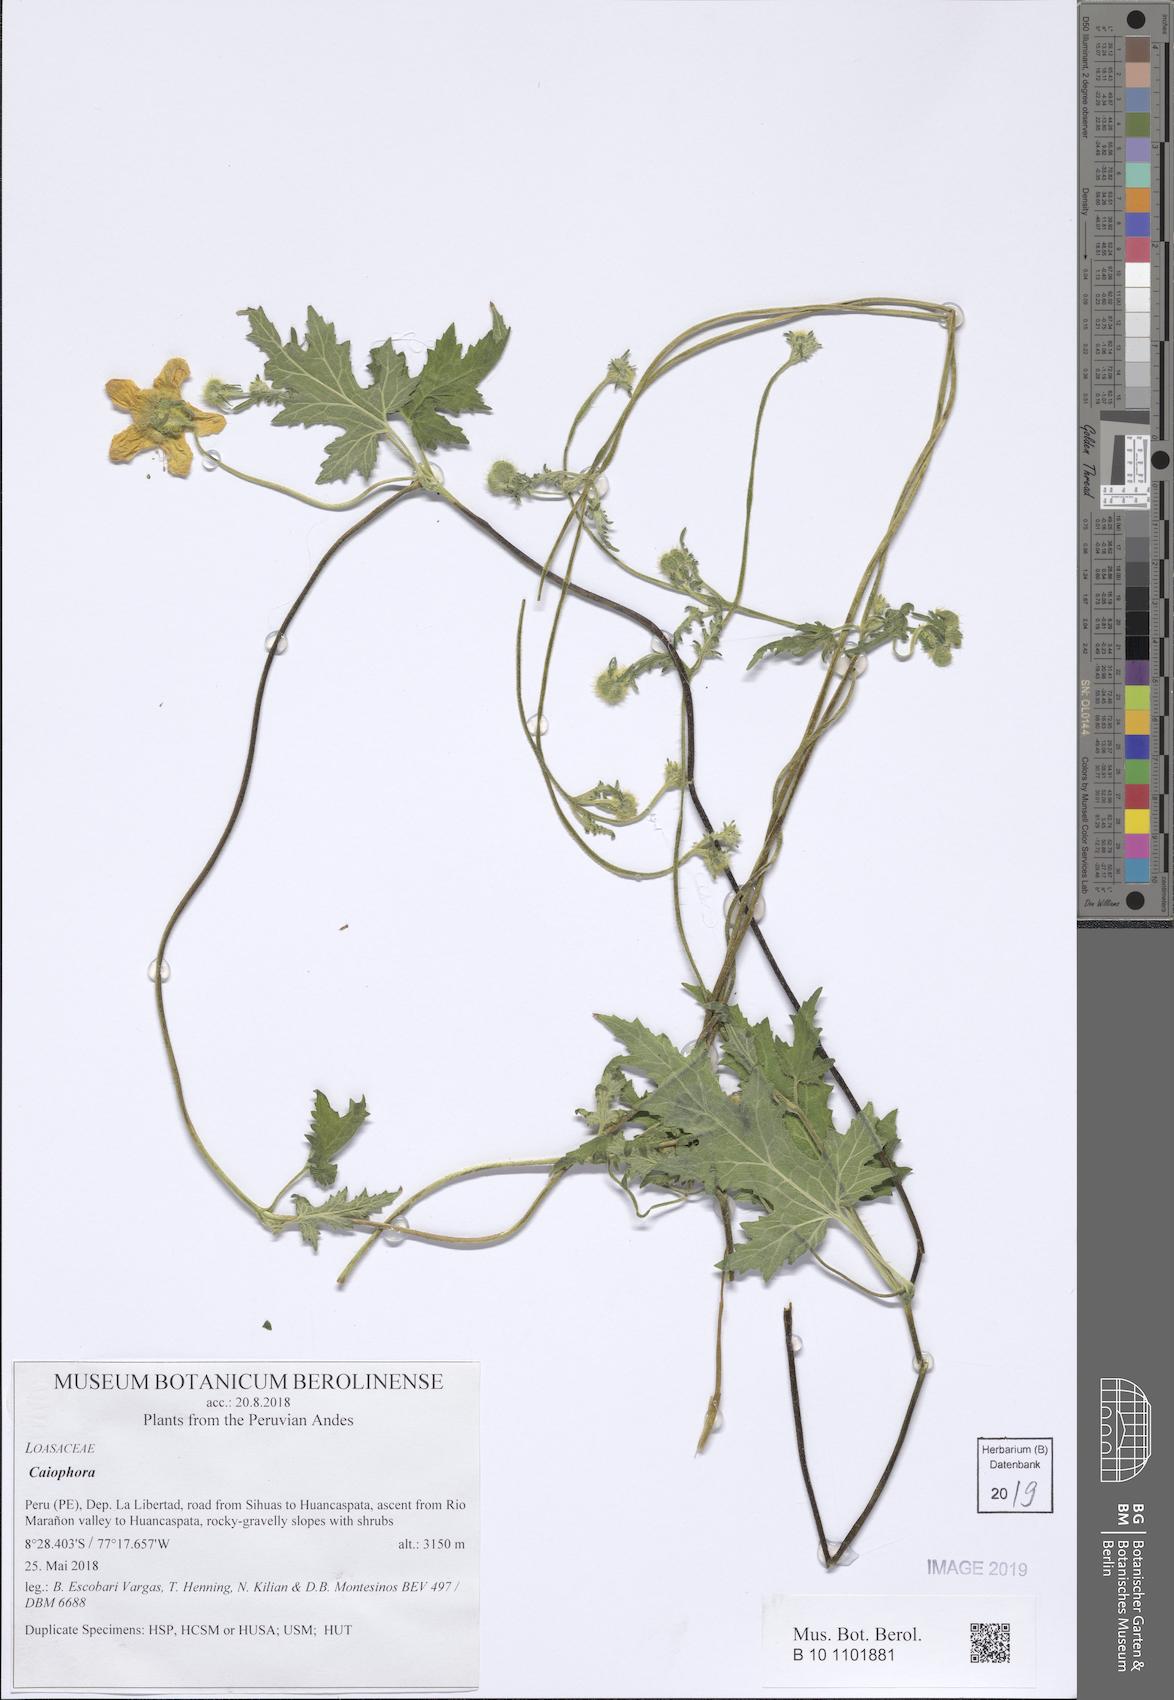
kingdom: Plantae
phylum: Tracheophyta
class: Magnoliopsida
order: Cornales
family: Loasaceae
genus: Caiophora
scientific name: Caiophora cirsiifolia
